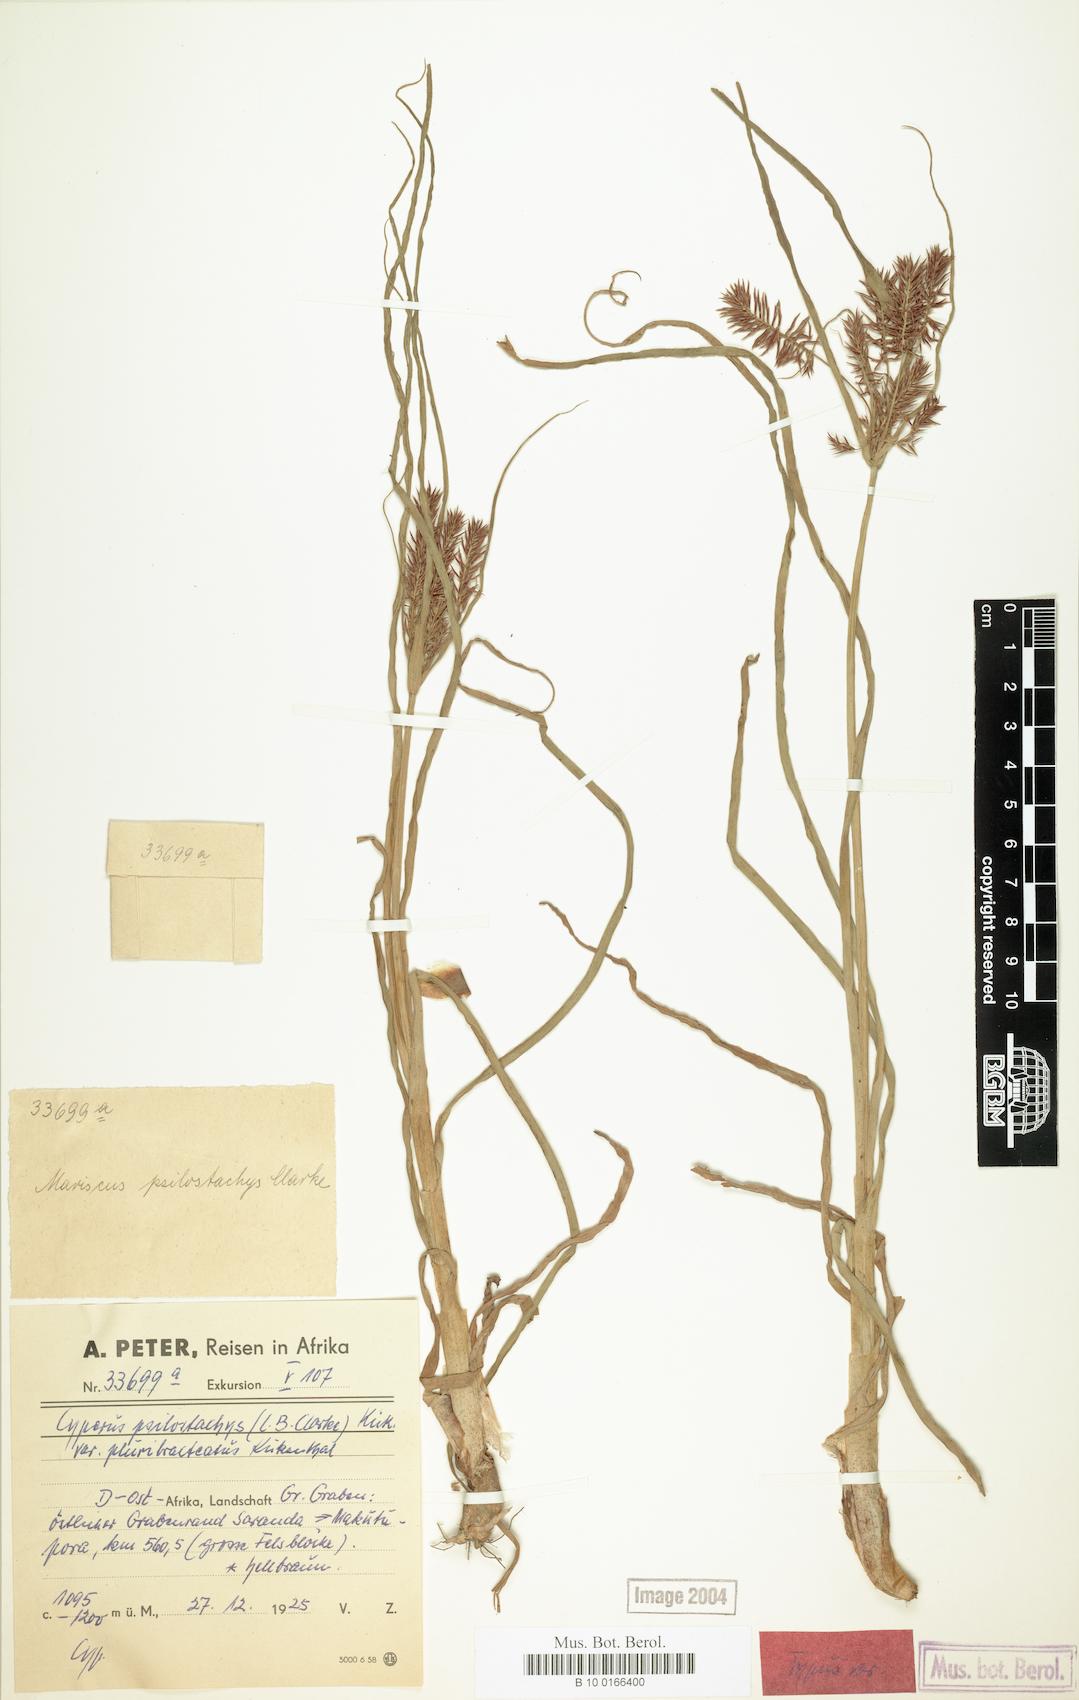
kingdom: Plantae
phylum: Tracheophyta
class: Liliopsida
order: Poales
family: Cyperaceae
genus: Cyperus
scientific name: Cyperus trigonellus
